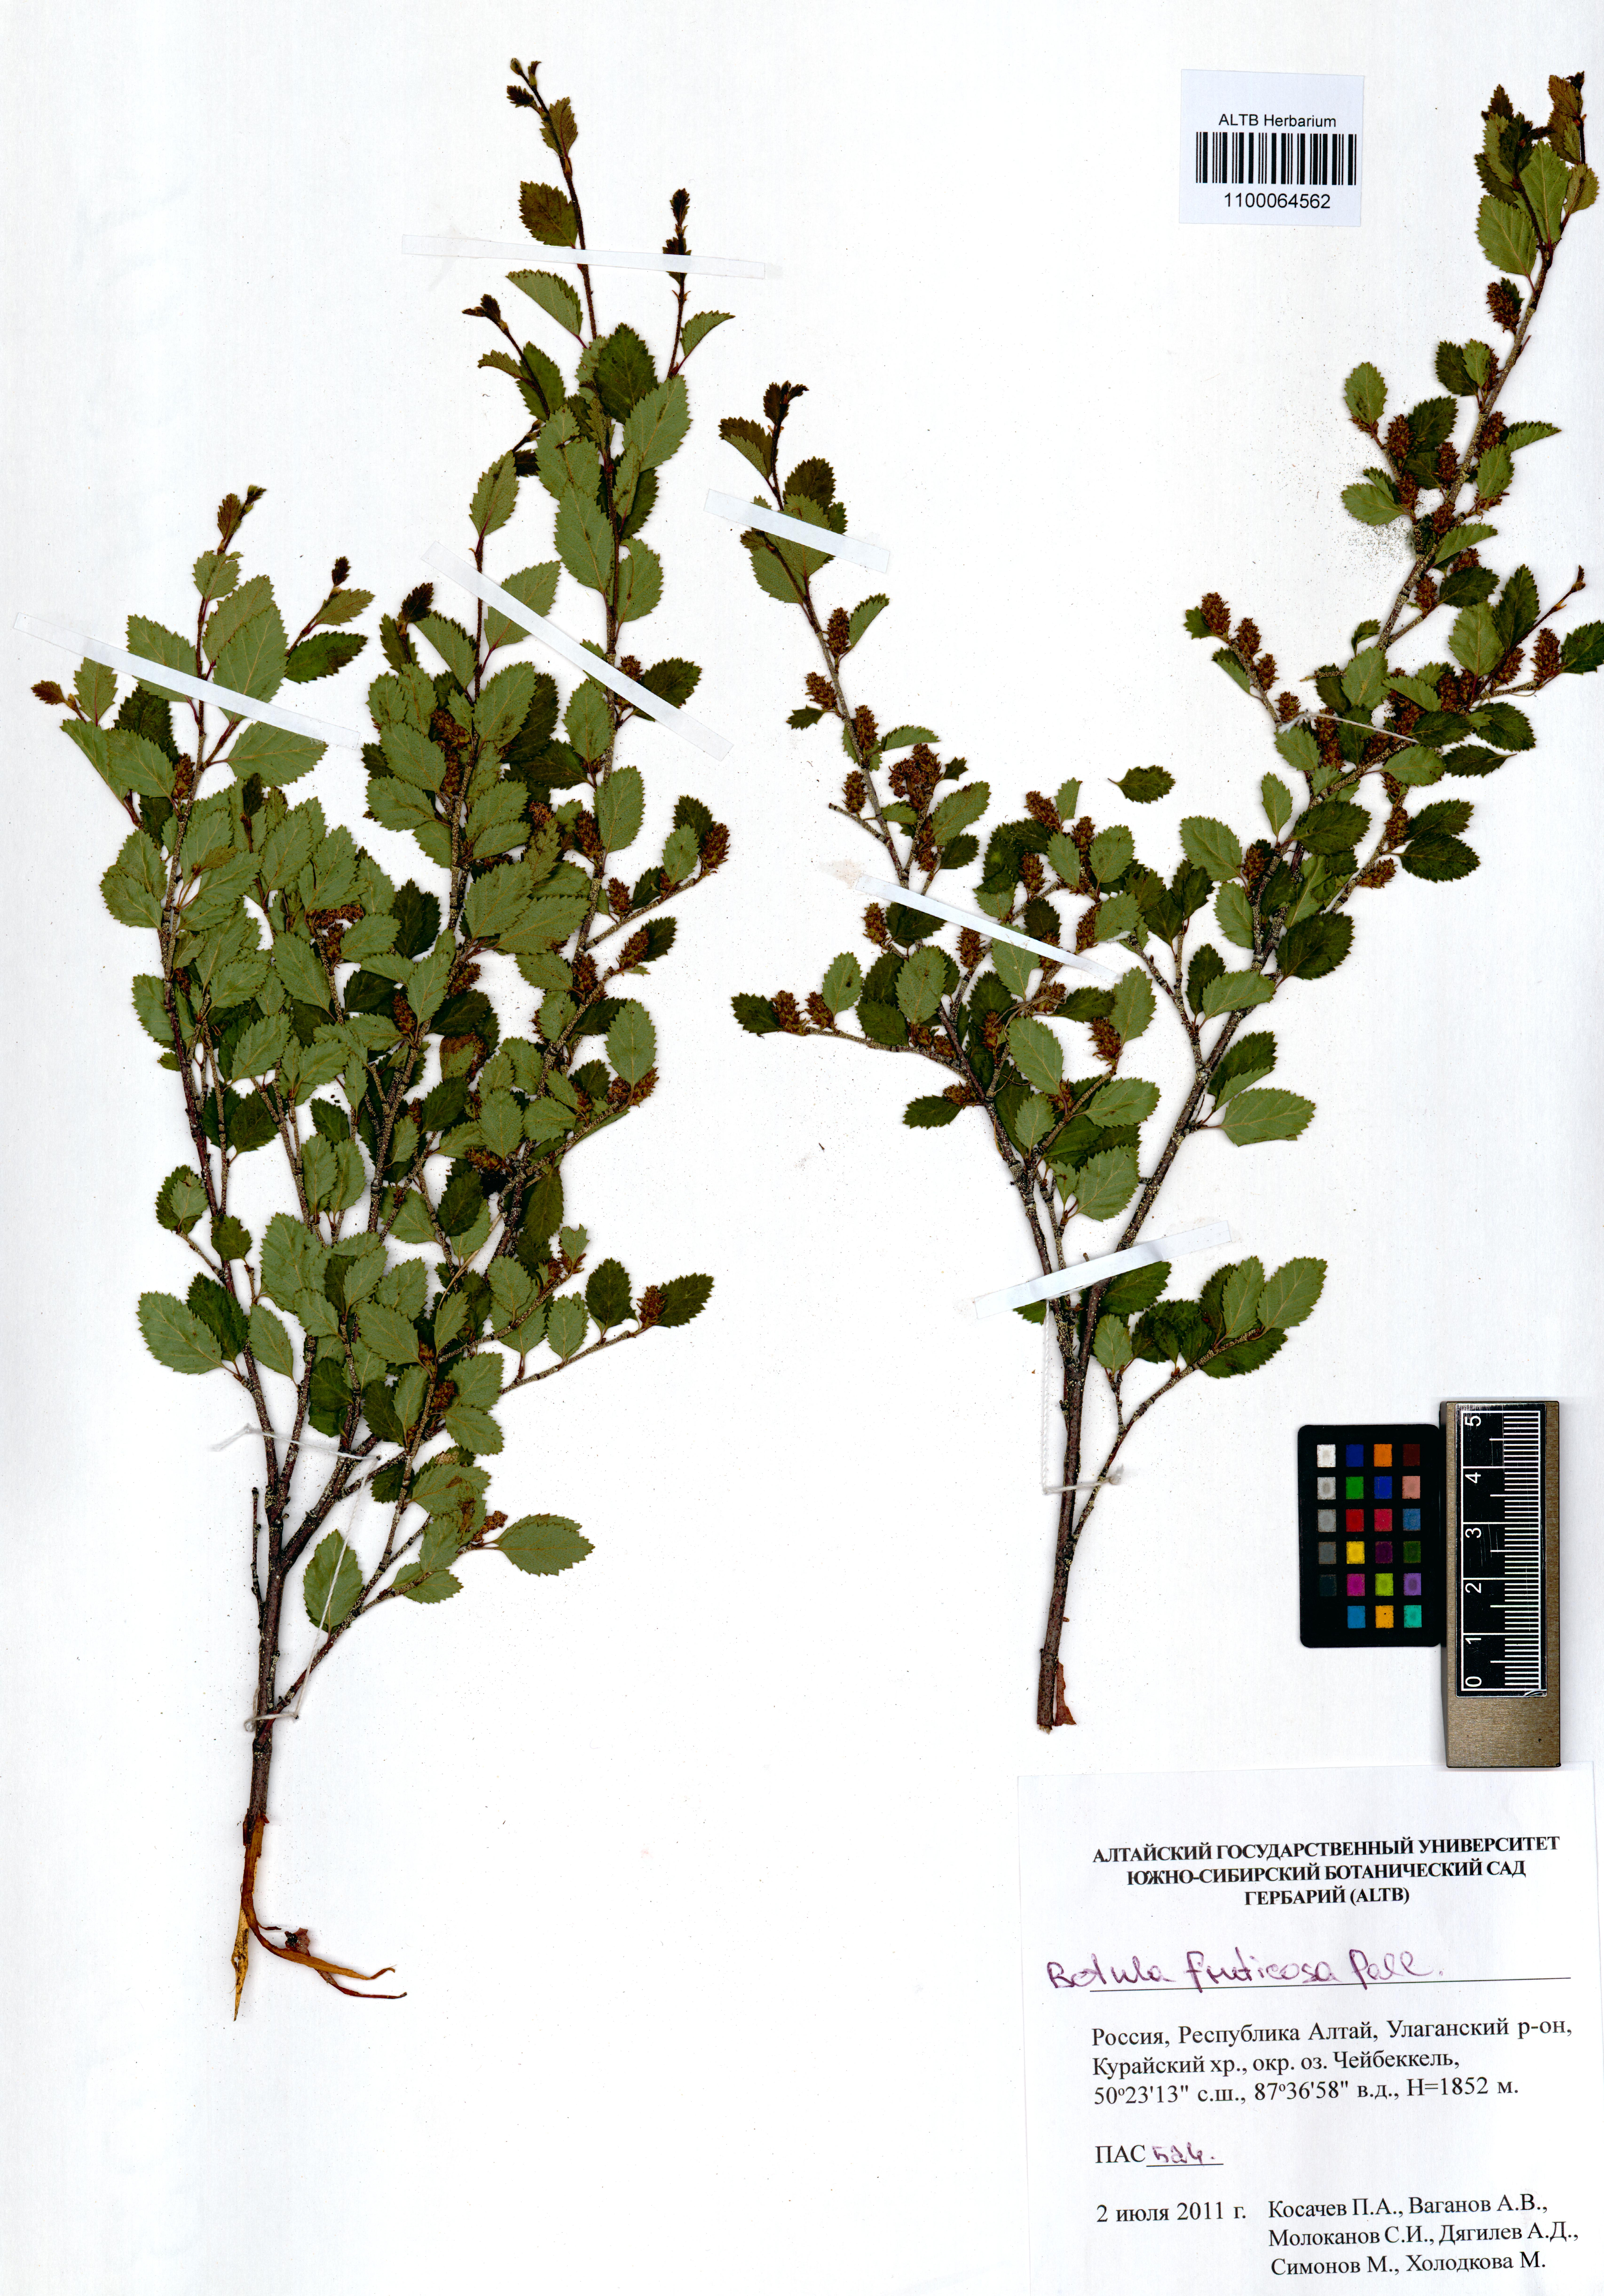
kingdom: Plantae
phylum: Tracheophyta
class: Magnoliopsida
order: Fagales
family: Betulaceae
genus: Betula
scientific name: Betula fruticosa
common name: Japanese bog birch
